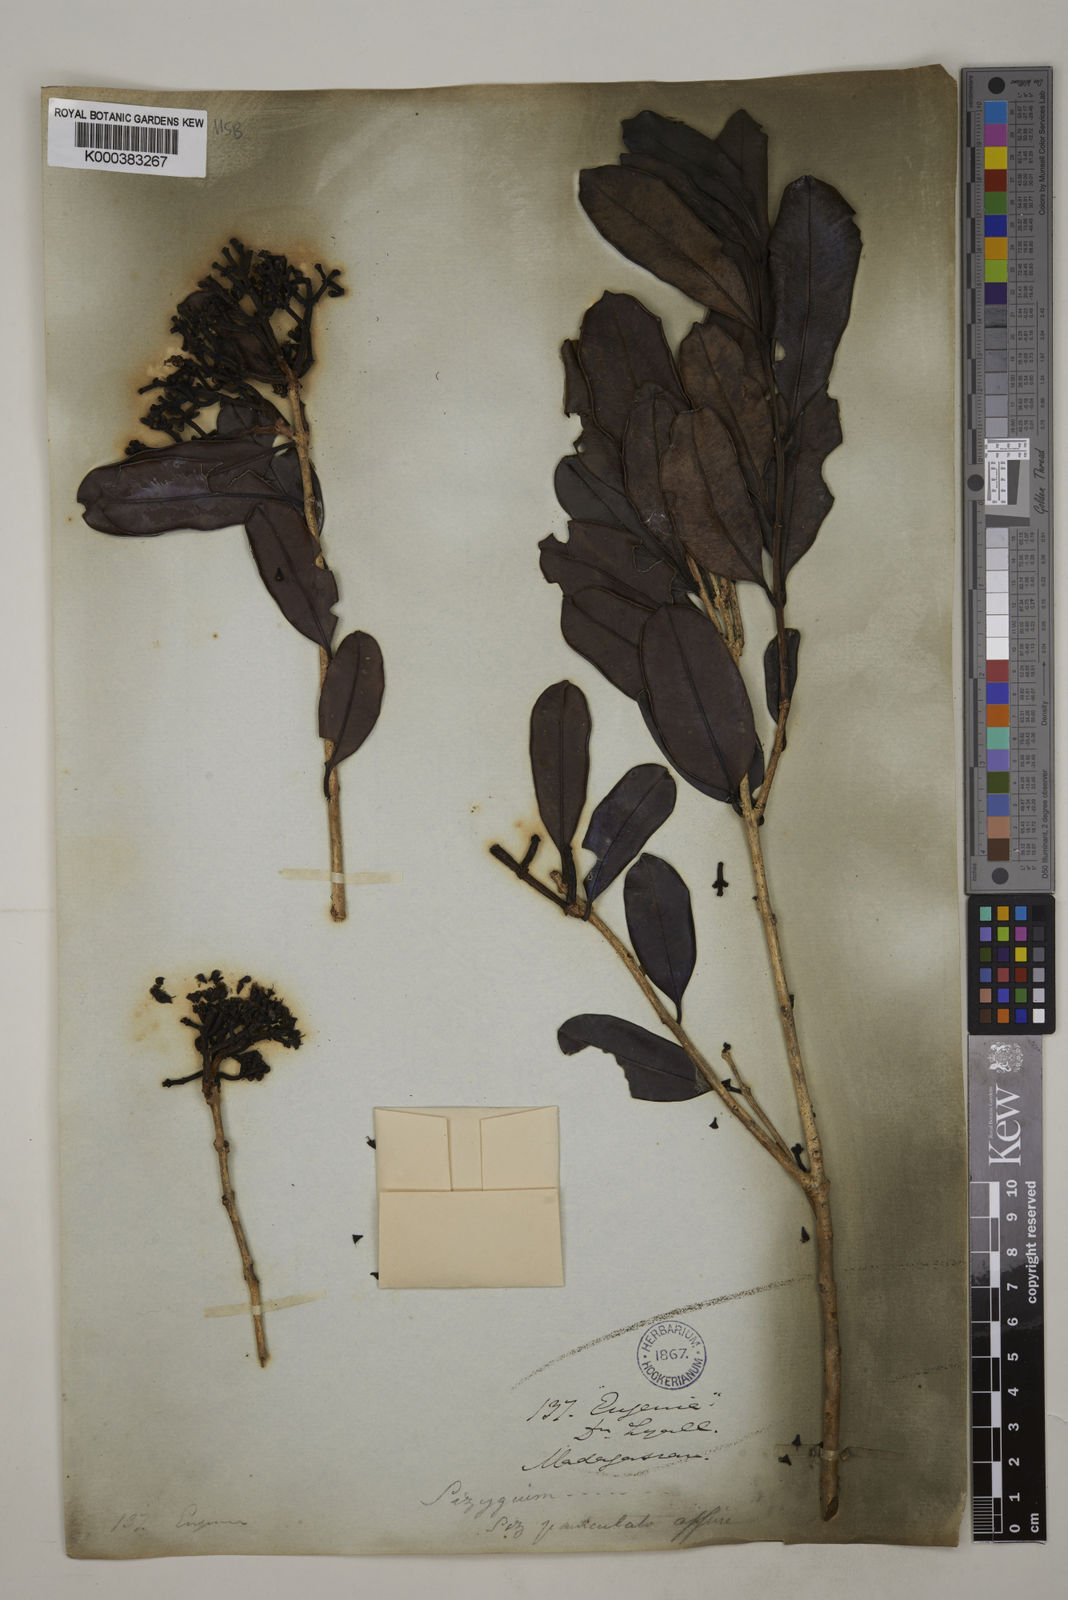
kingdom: Plantae
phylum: Tracheophyta
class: Magnoliopsida
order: Myrtales
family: Myrtaceae
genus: Syzygium
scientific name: Syzygium emirnense
